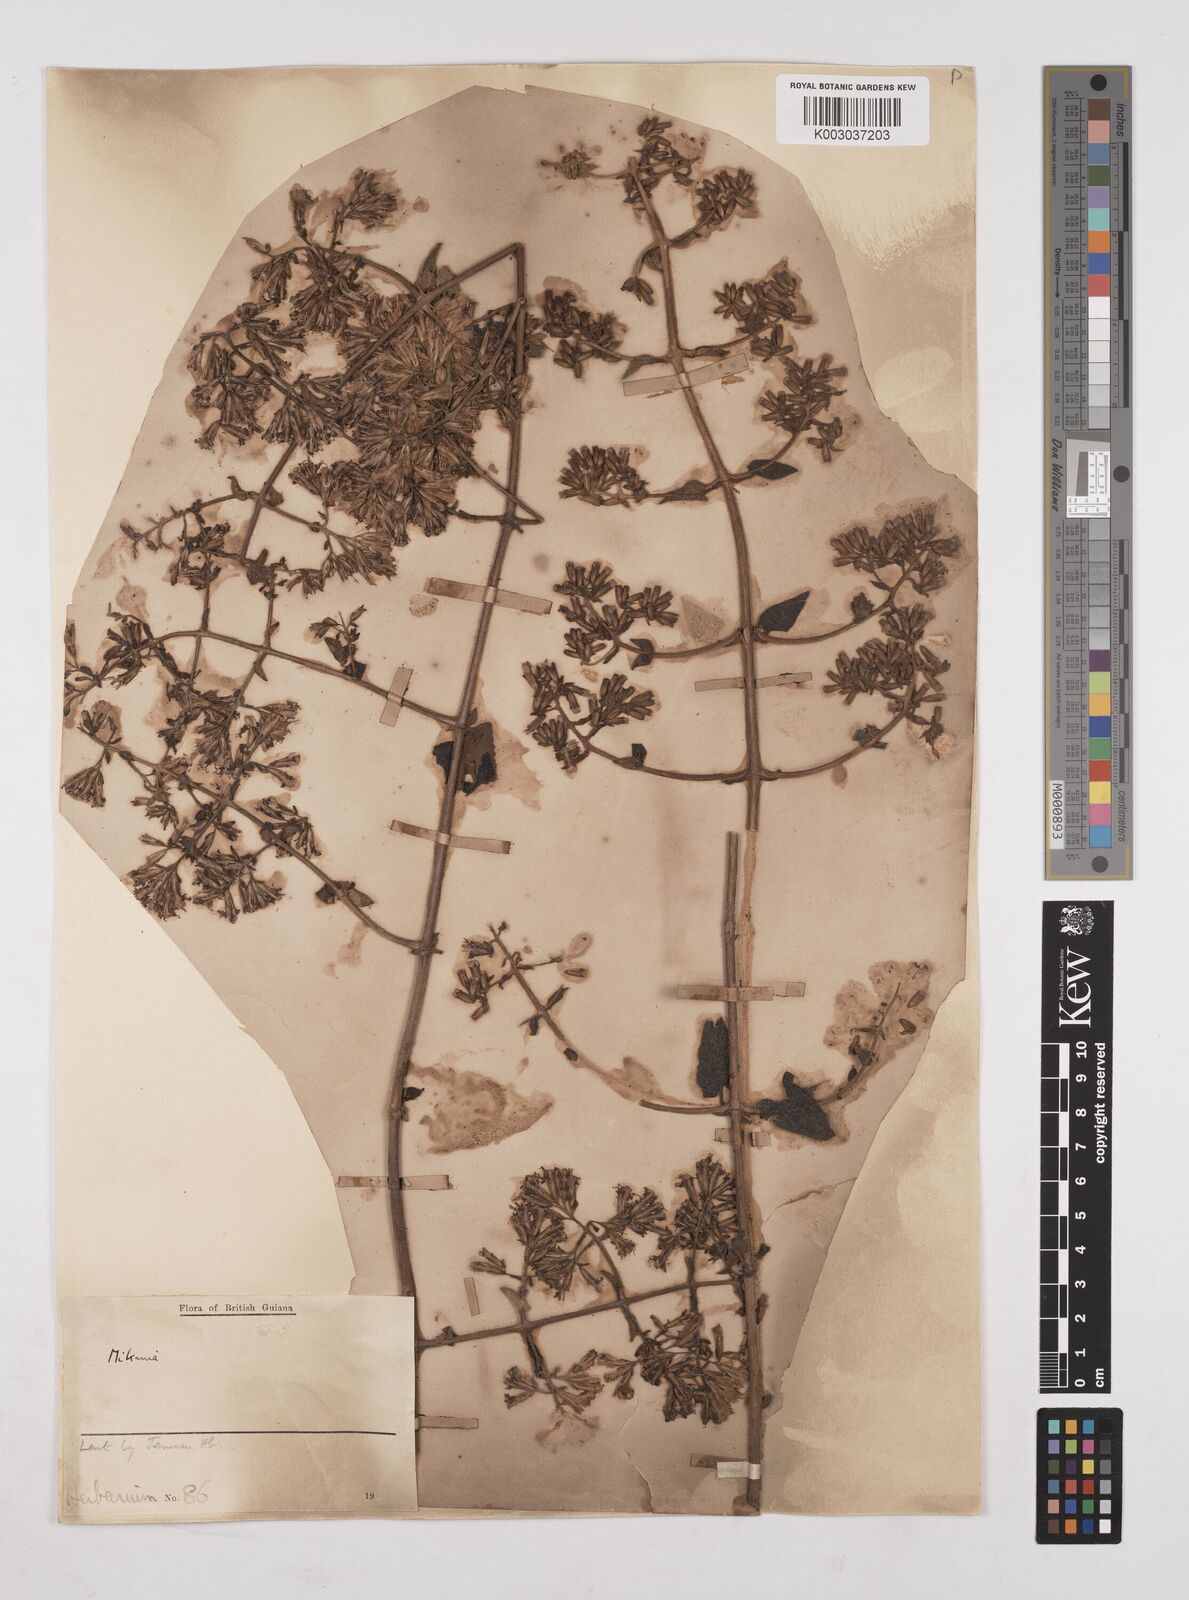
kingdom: Plantae
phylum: Tracheophyta
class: Magnoliopsida
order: Asterales
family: Asteraceae
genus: Mikania
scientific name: Mikania
